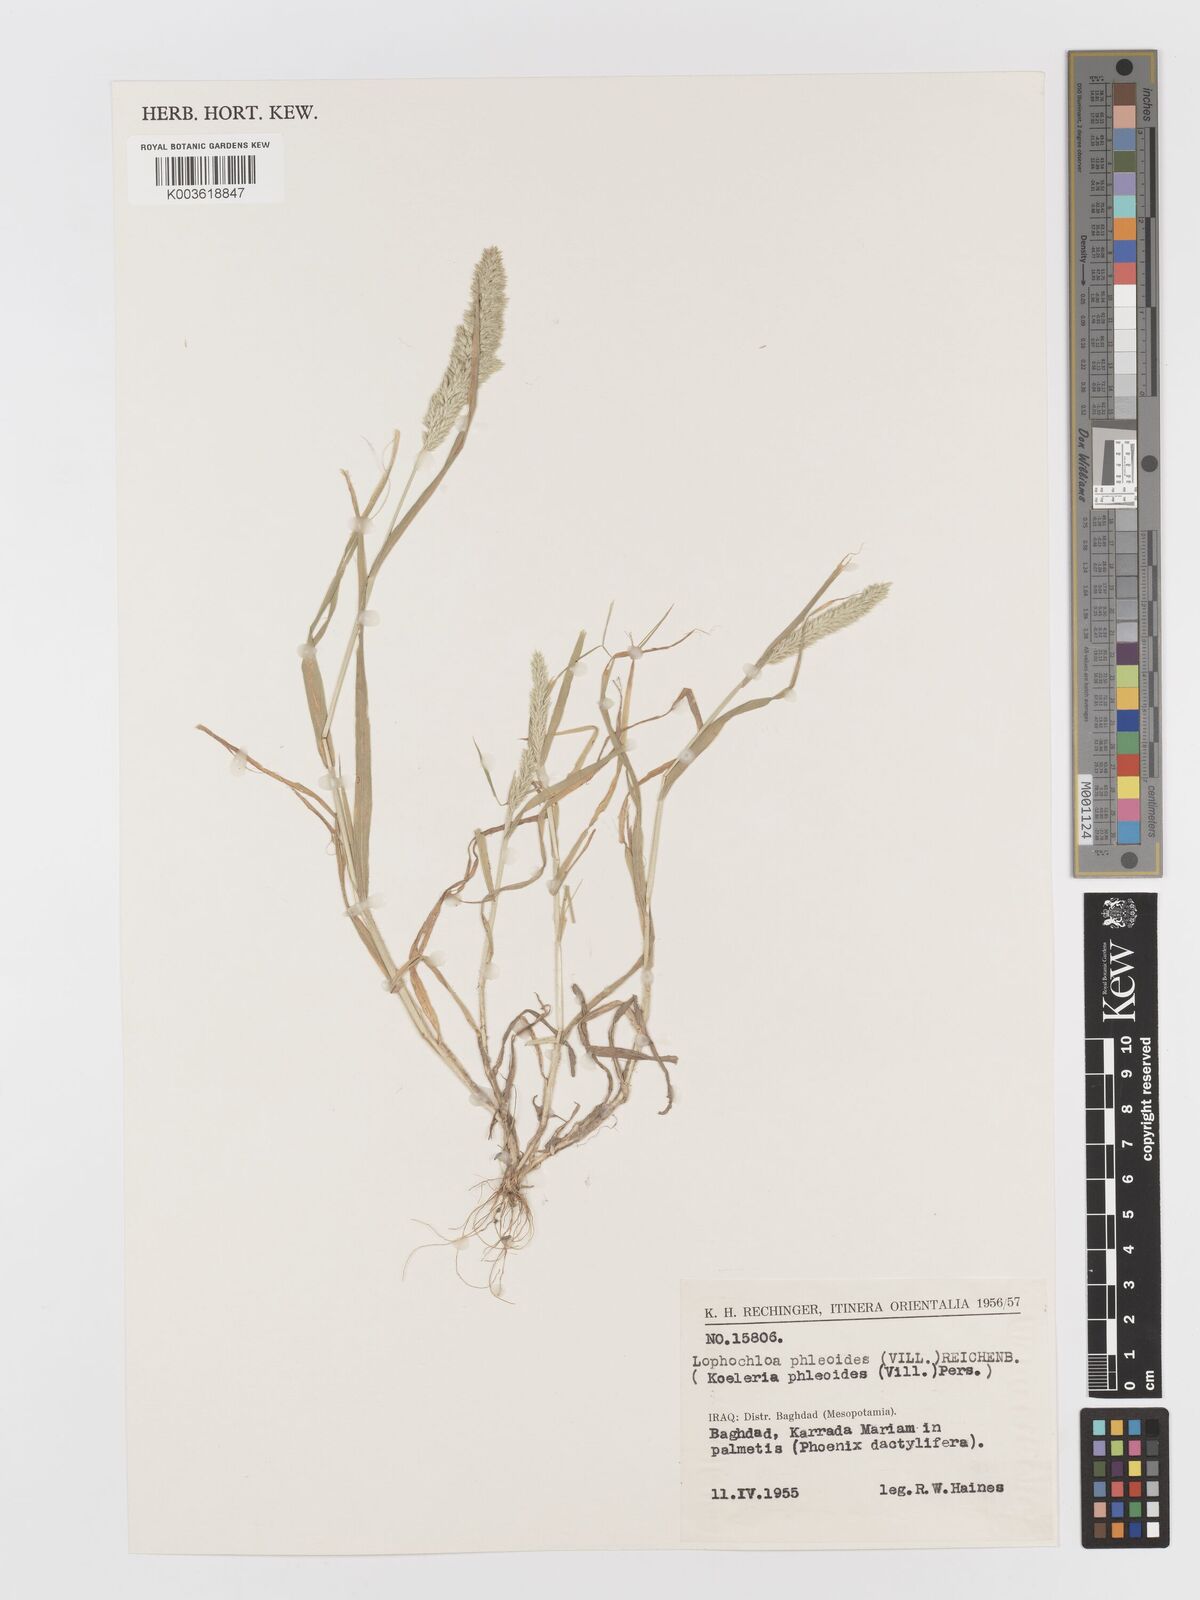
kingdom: Plantae
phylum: Tracheophyta
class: Liliopsida
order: Poales
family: Poaceae
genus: Rostraria
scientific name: Rostraria cristata
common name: Mediterranean hair-grass
